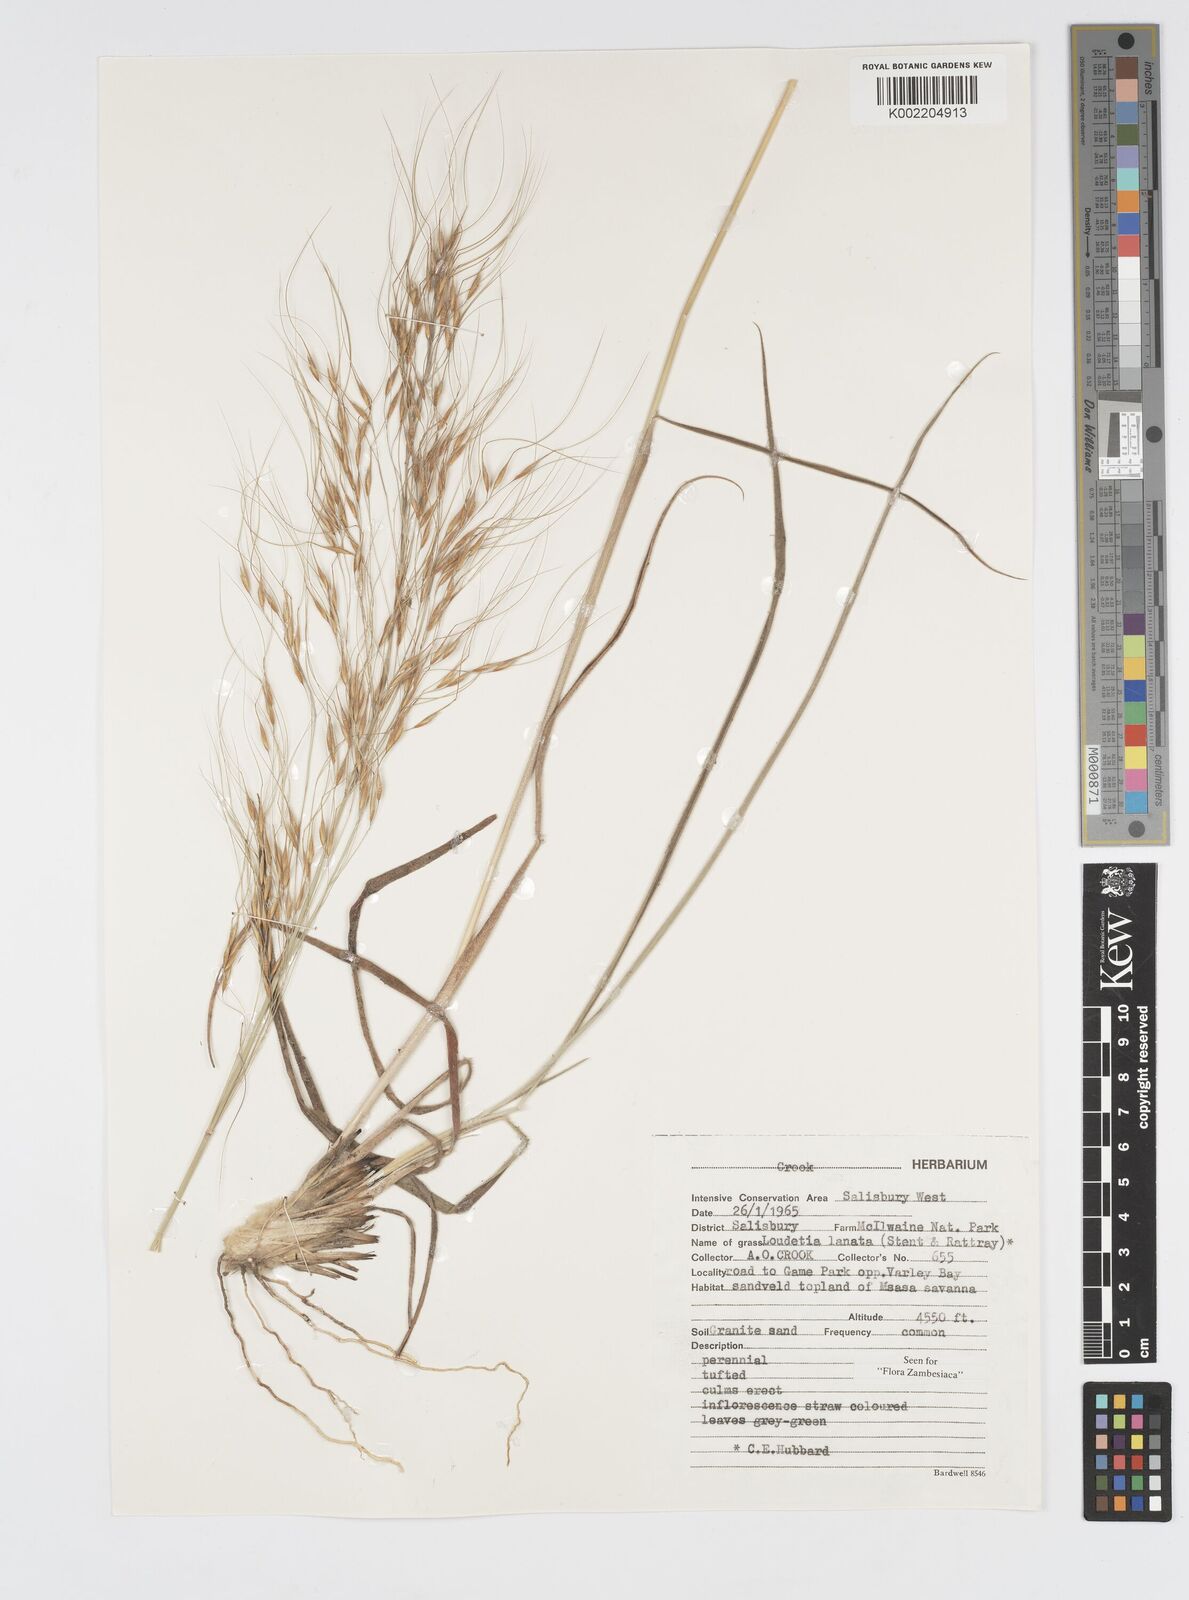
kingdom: Plantae
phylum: Tracheophyta
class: Liliopsida
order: Poales
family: Poaceae
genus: Loudetia
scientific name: Loudetia lanata
